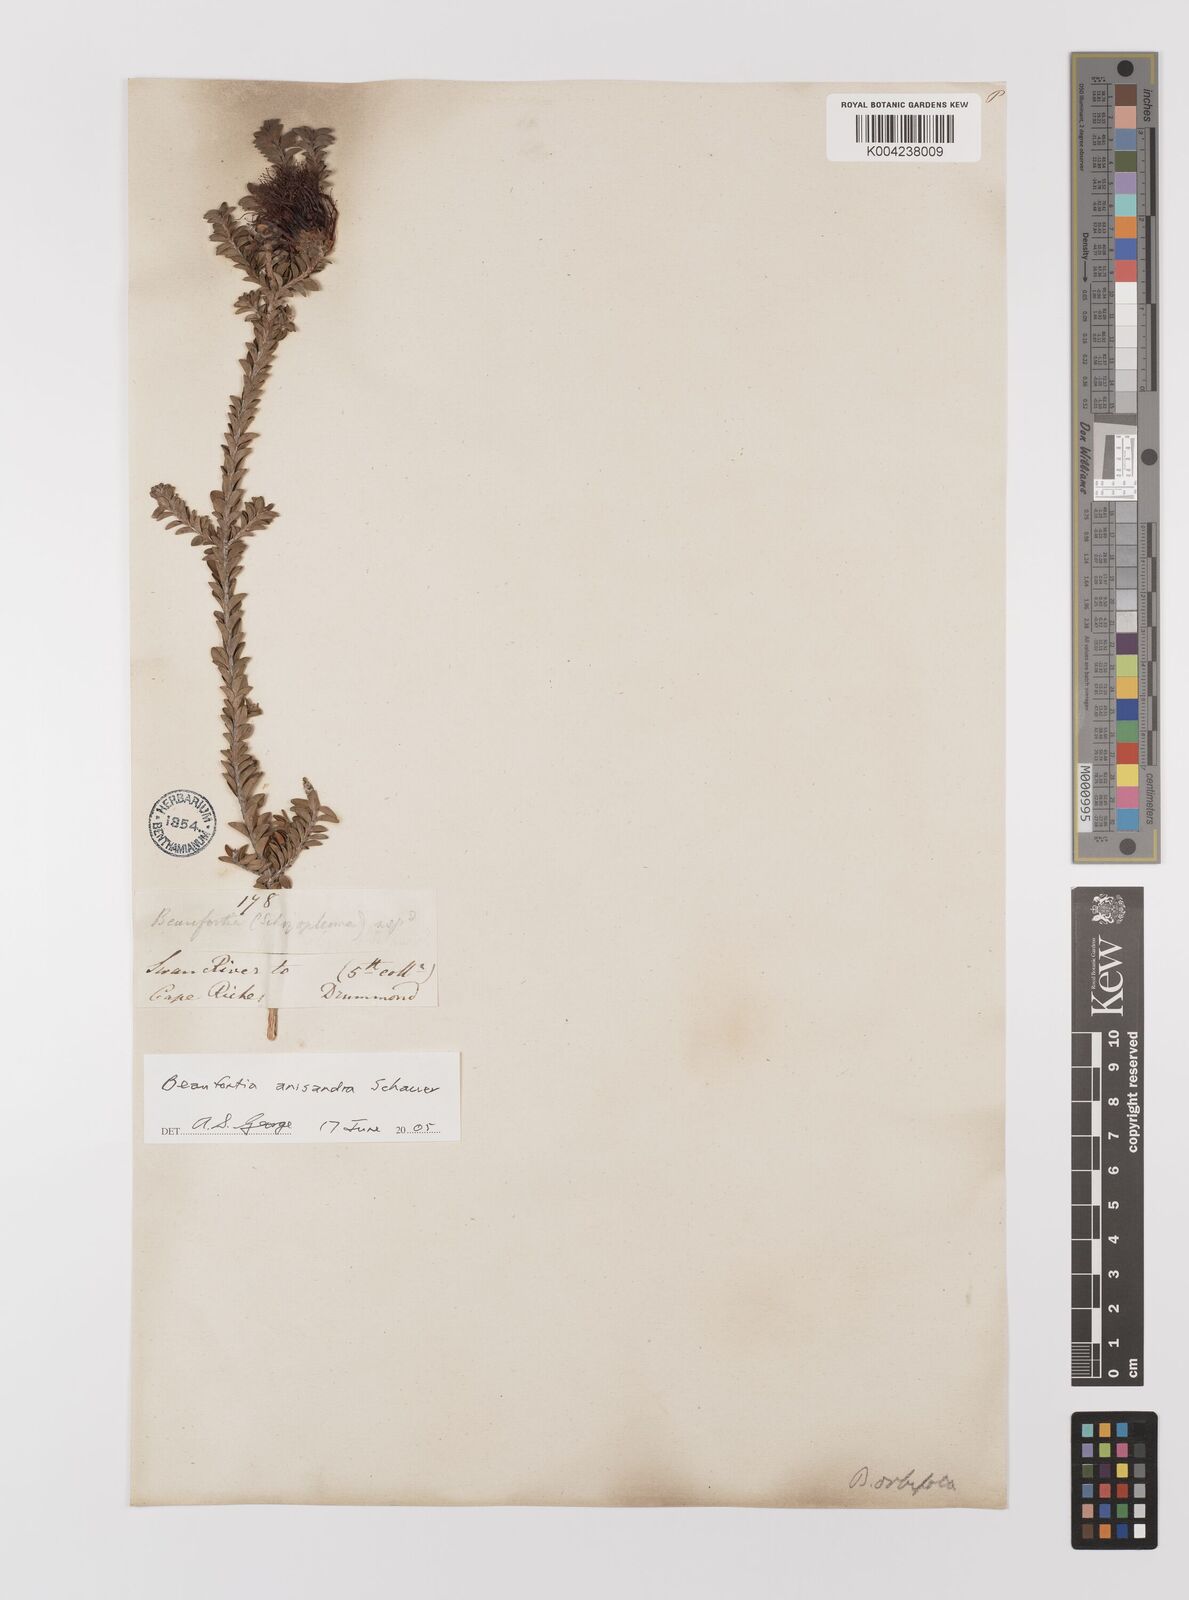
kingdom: Plantae
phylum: Tracheophyta
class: Magnoliopsida
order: Myrtales
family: Myrtaceae
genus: Melaleuca
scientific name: Melaleuca anisandra
